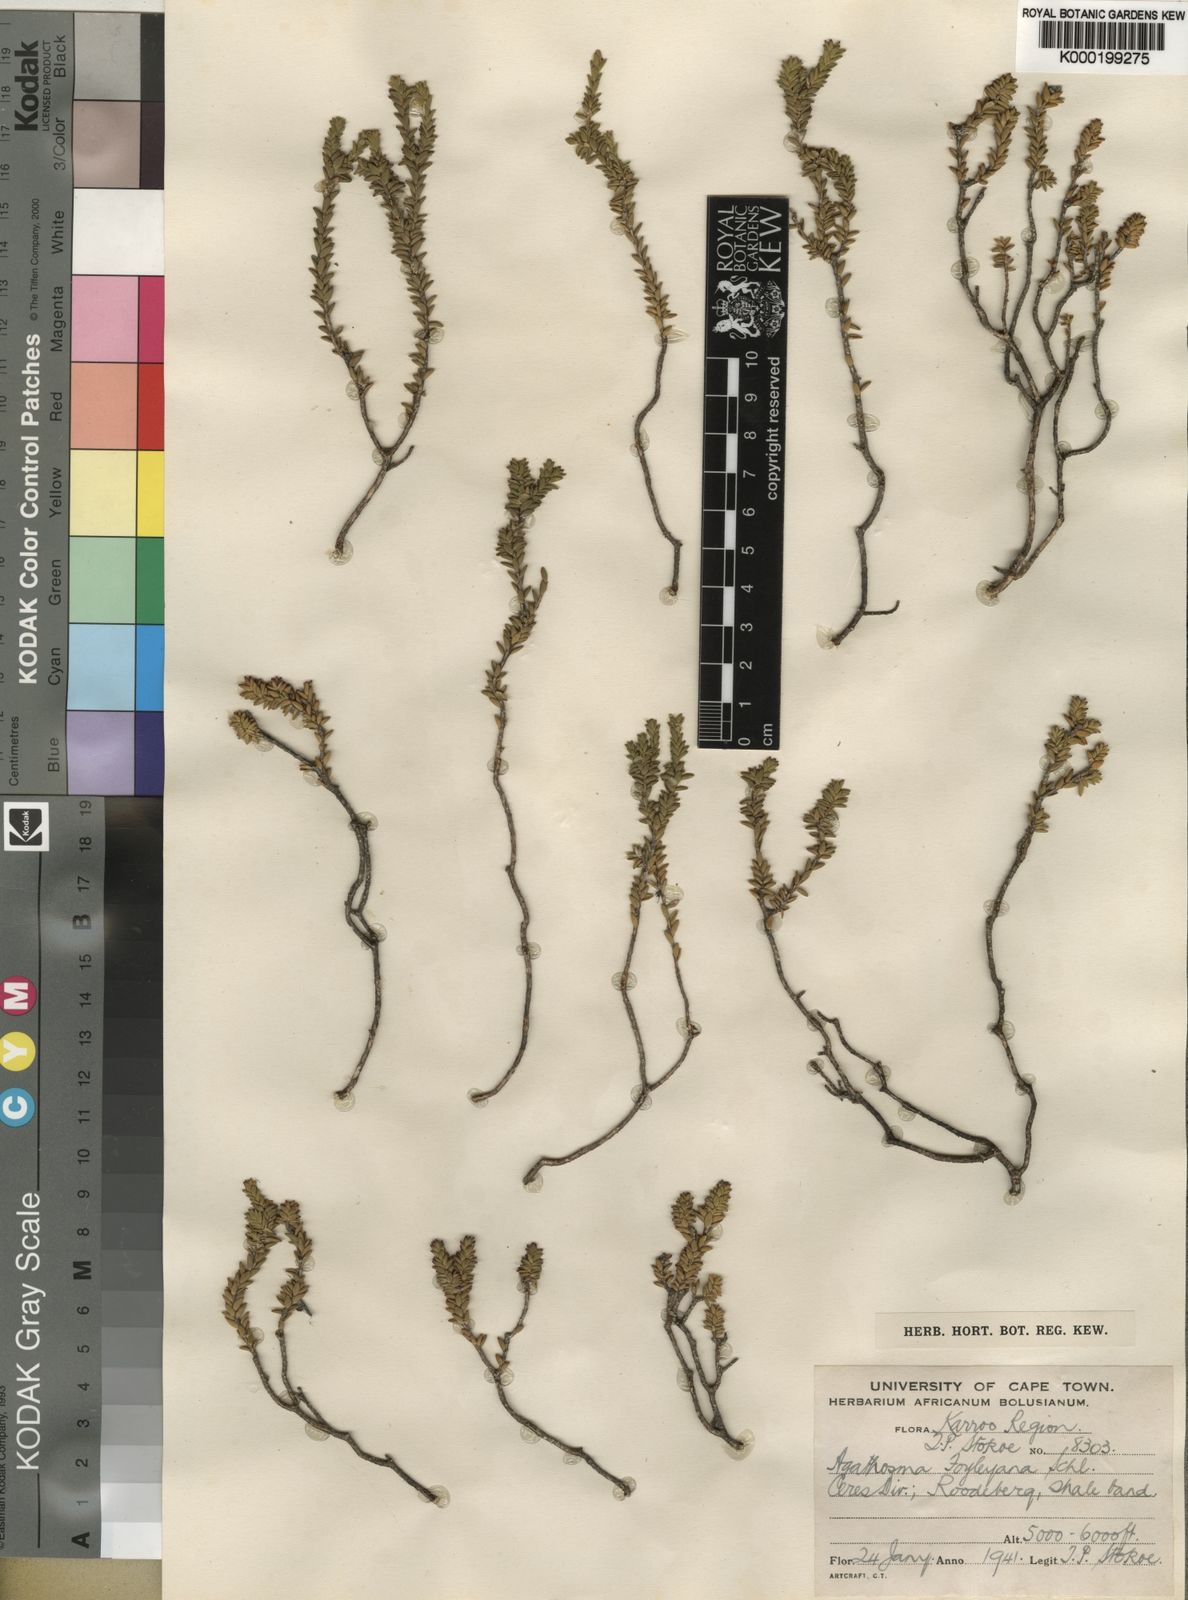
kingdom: Plantae
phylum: Tracheophyta
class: Magnoliopsida
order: Sapindales
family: Rutaceae
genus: Agathosma
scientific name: Agathosma foleyana
